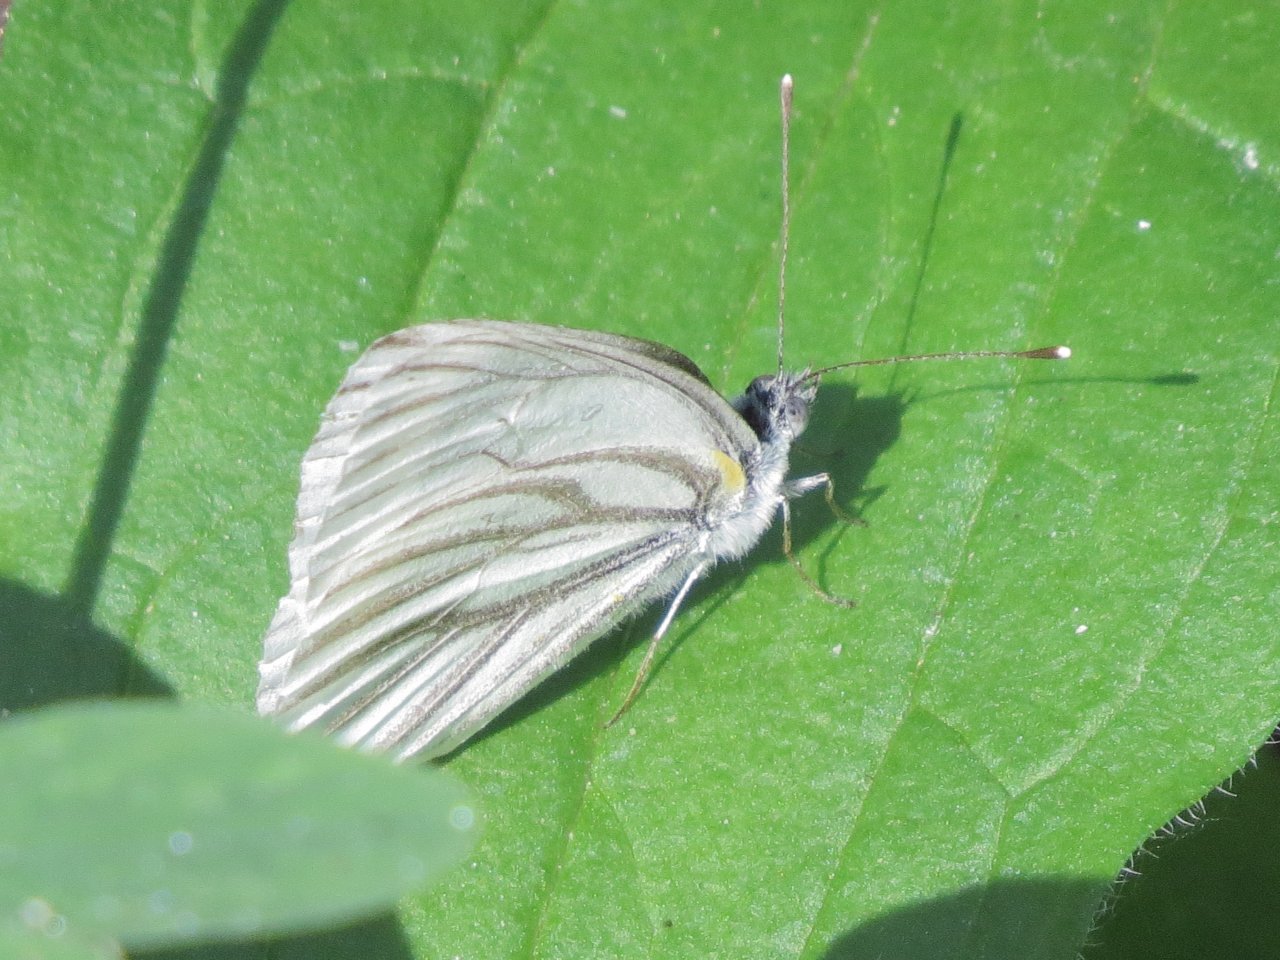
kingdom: Animalia
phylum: Arthropoda
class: Insecta
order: Lepidoptera
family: Pieridae
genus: Pieris
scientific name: Pieris oleracea
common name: Mustard White
